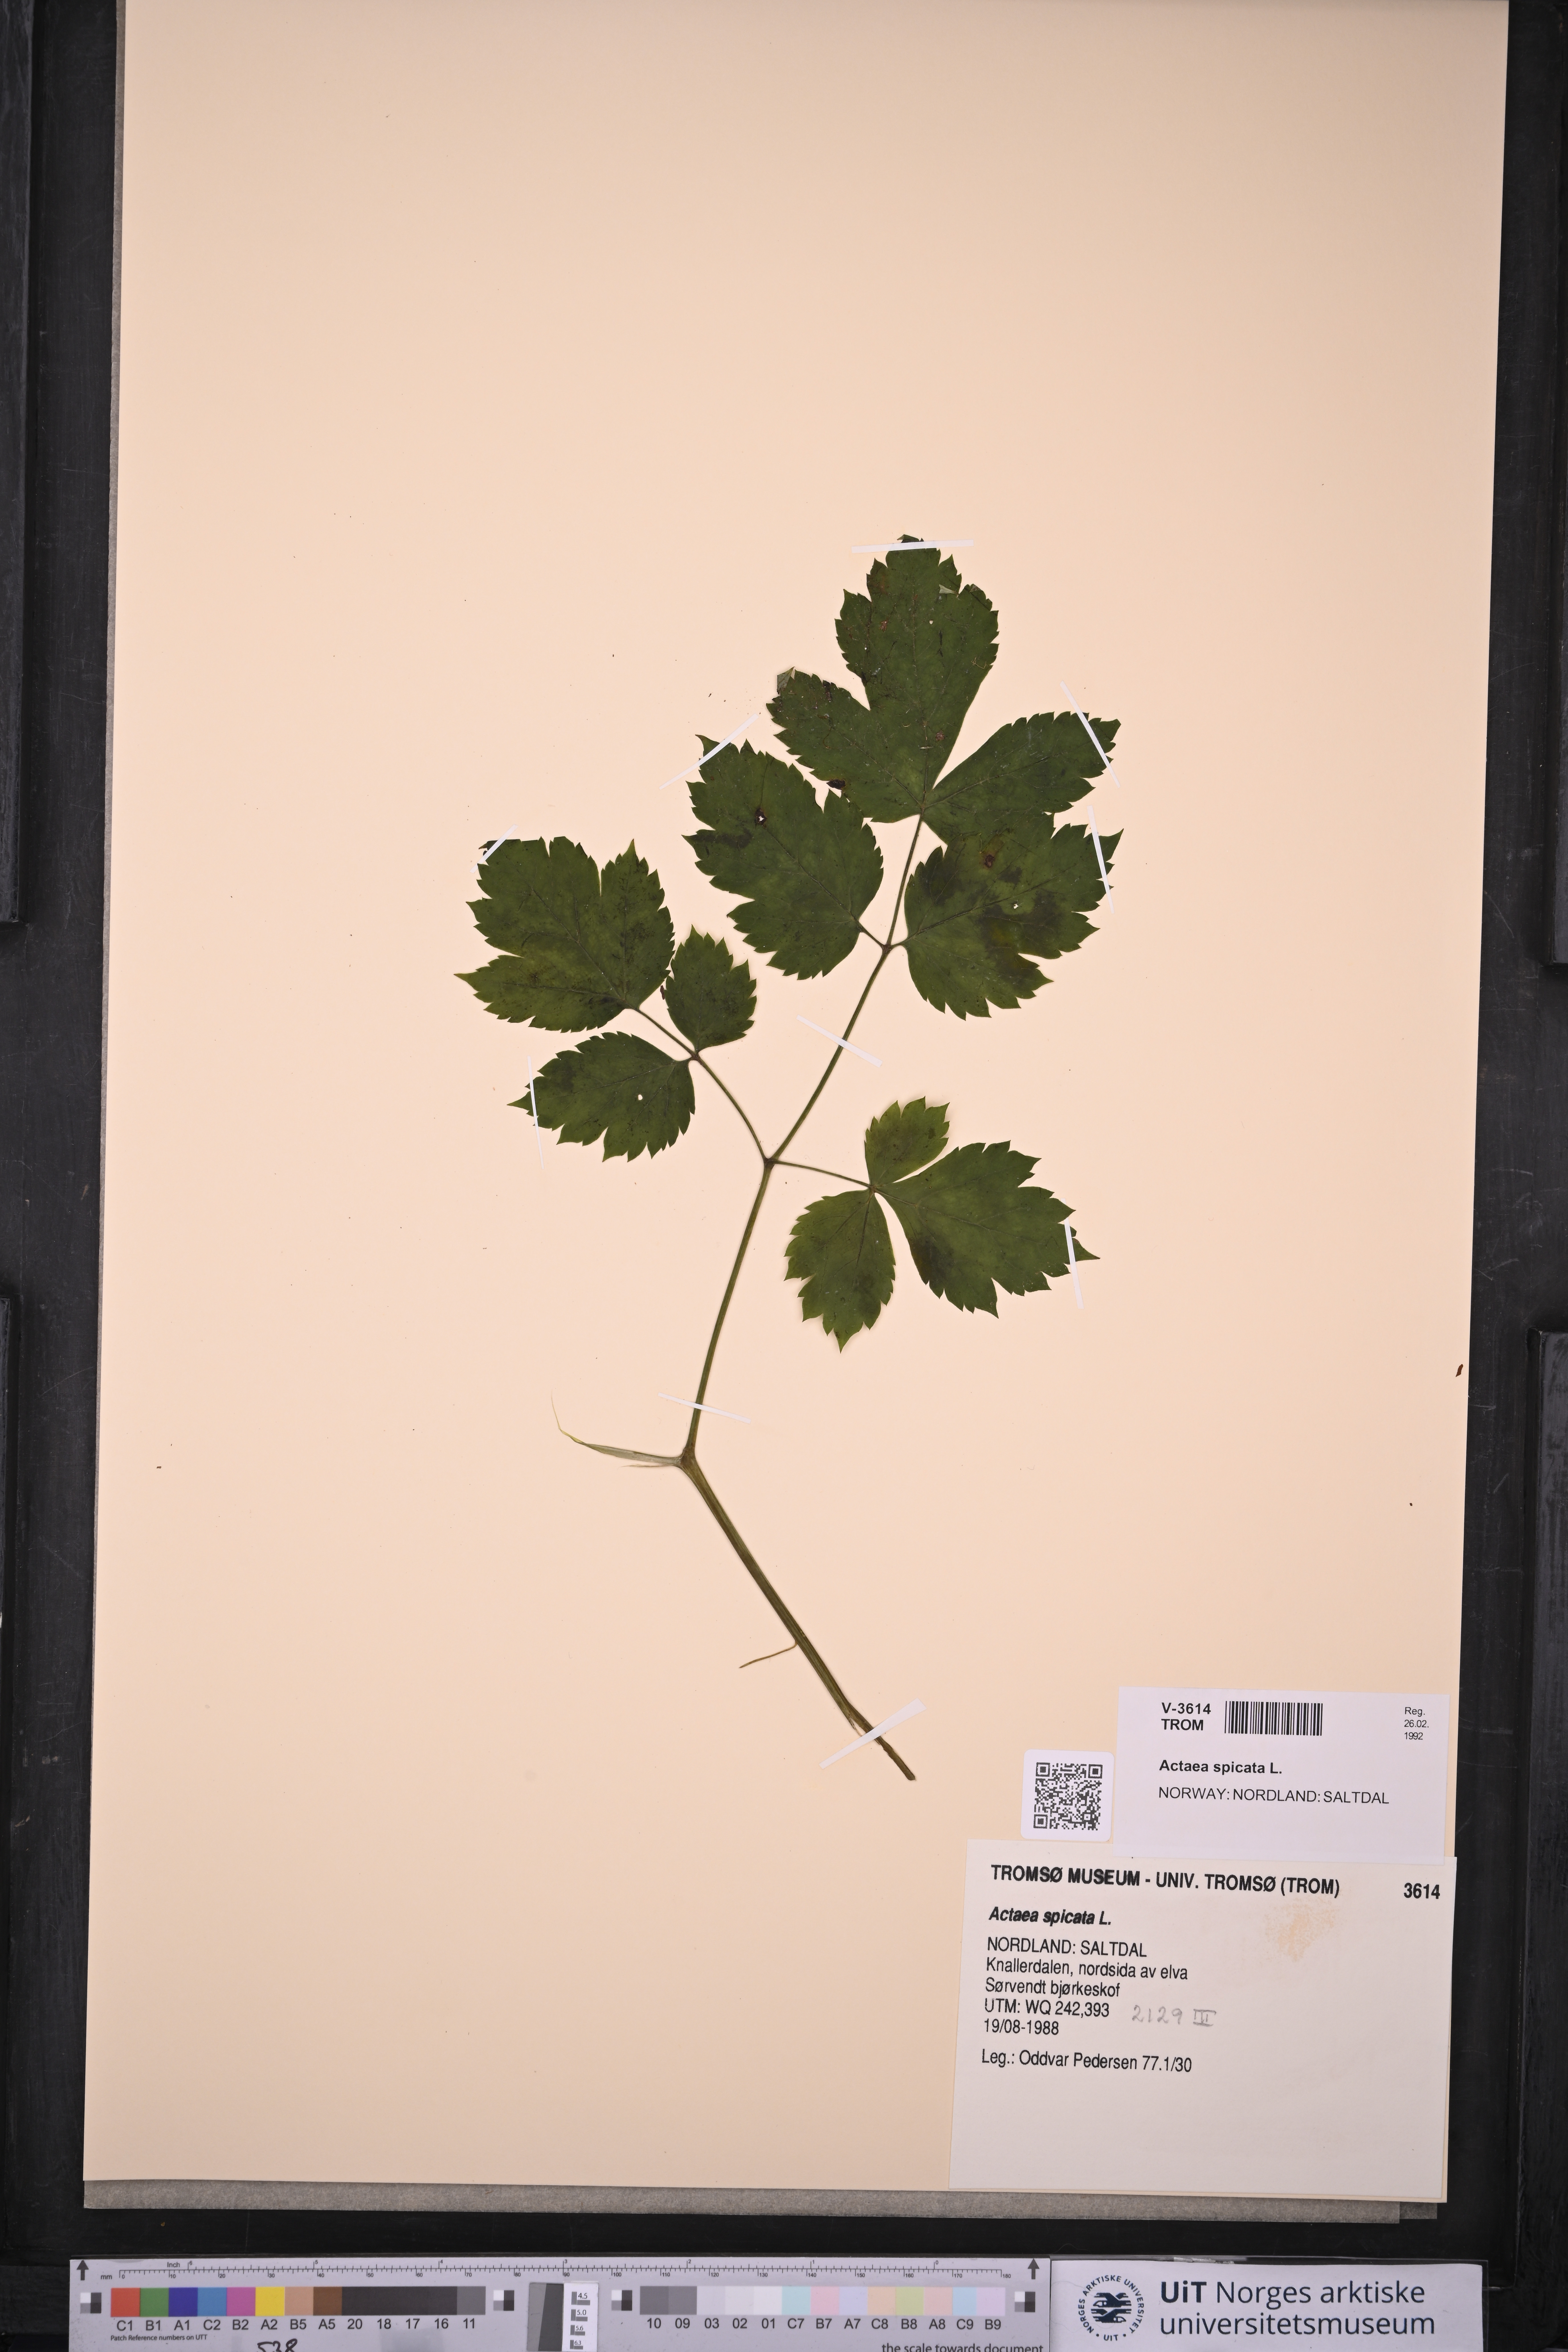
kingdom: Plantae
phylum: Tracheophyta
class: Magnoliopsida
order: Ranunculales
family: Ranunculaceae
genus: Actaea
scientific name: Actaea spicata
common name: Baneberry
